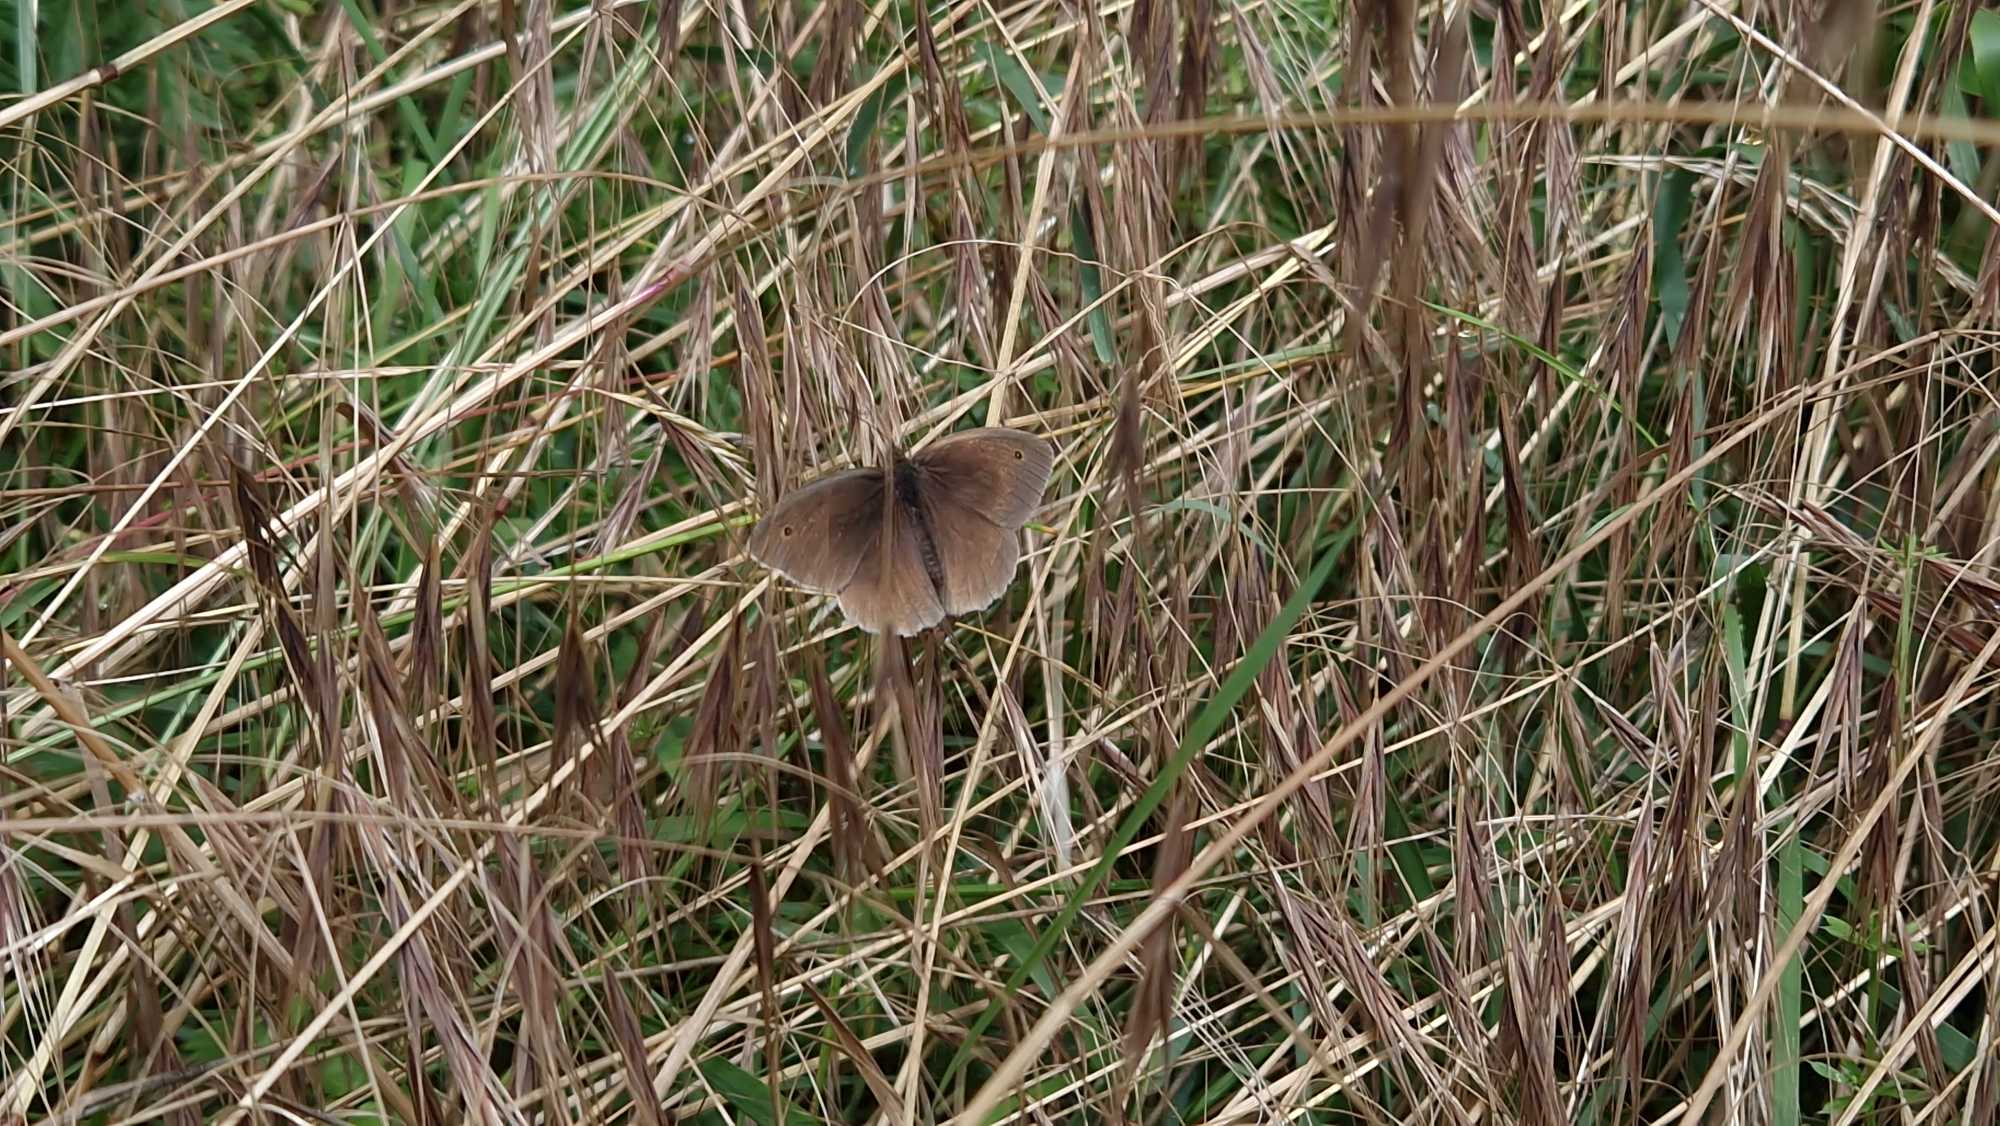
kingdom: Animalia
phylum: Arthropoda
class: Insecta
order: Lepidoptera
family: Nymphalidae
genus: Maniola
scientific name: Maniola jurtina
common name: Græsrandøje
